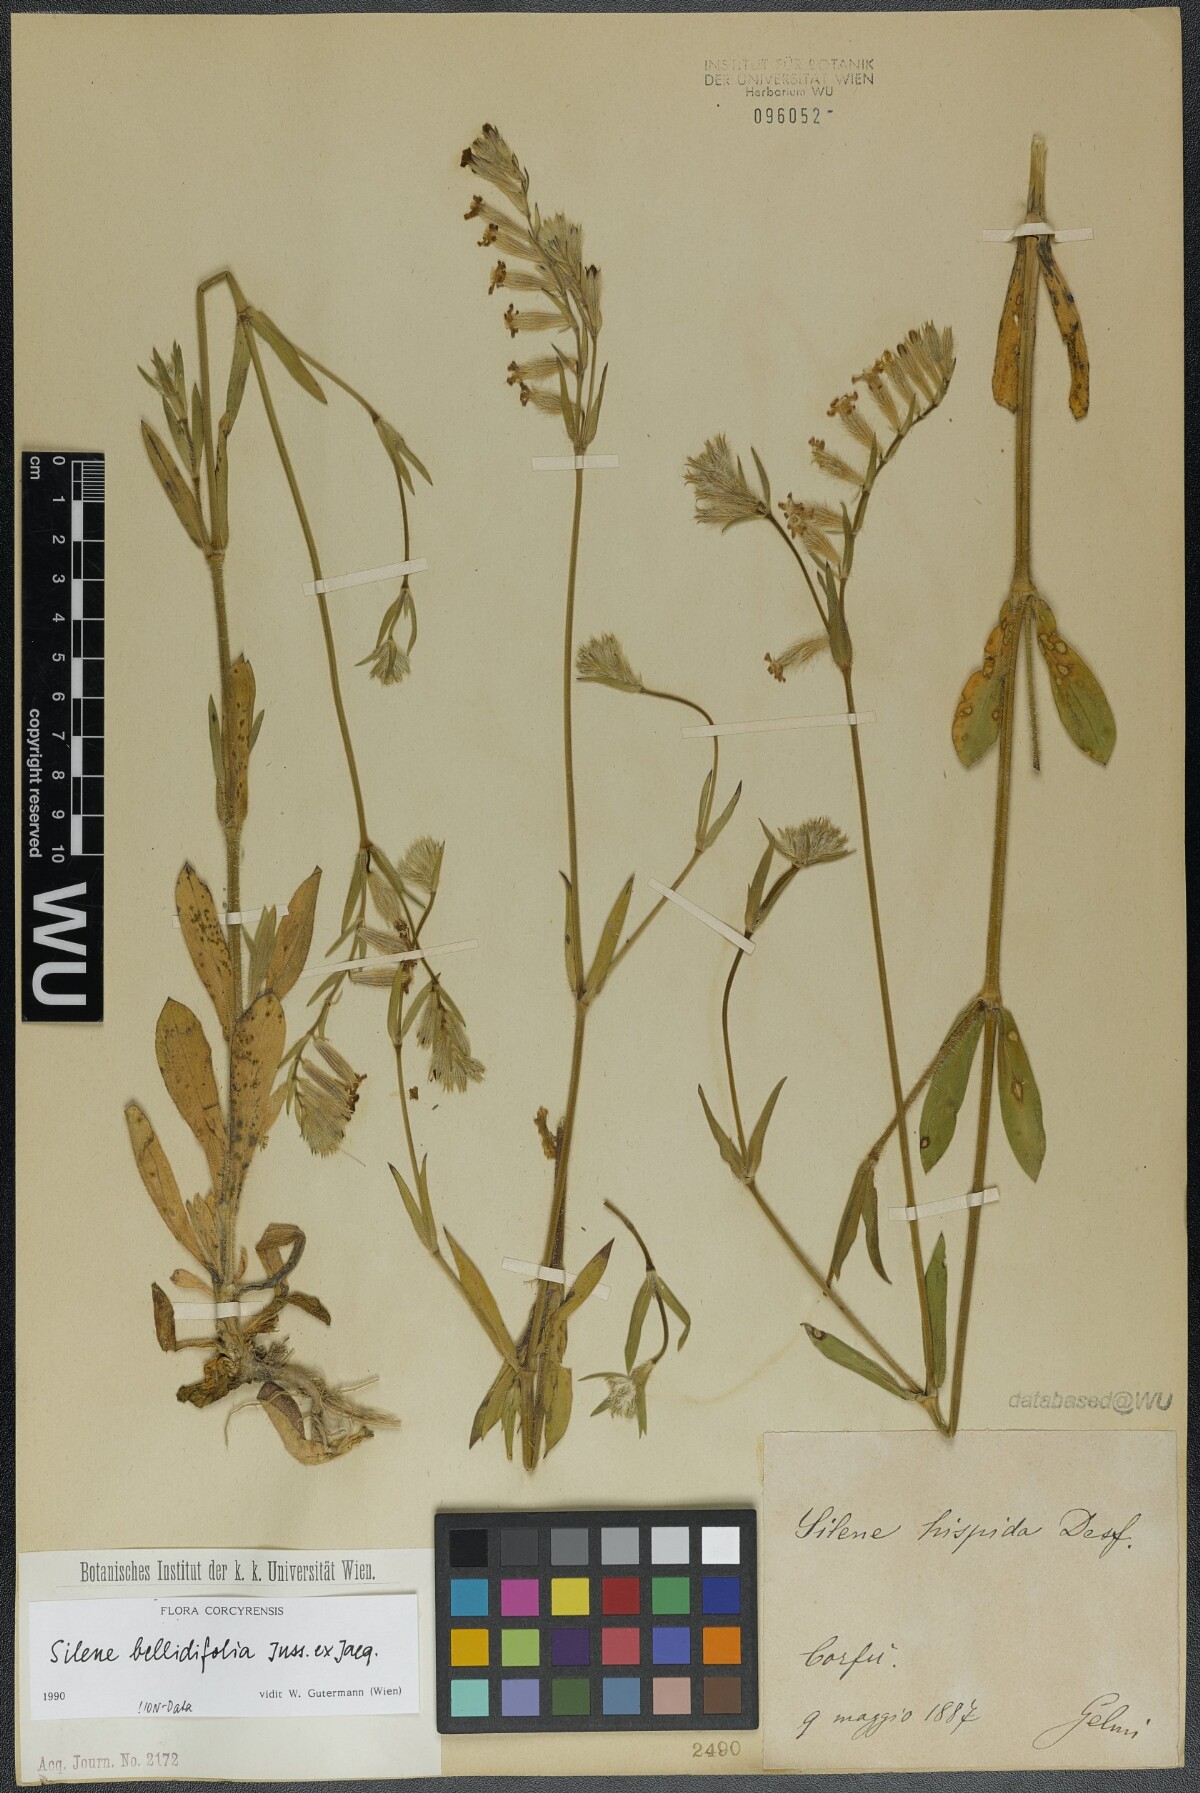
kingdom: Plantae
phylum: Tracheophyta
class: Magnoliopsida
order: Caryophyllales
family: Caryophyllaceae
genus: Silene
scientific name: Silene bellidifolia
